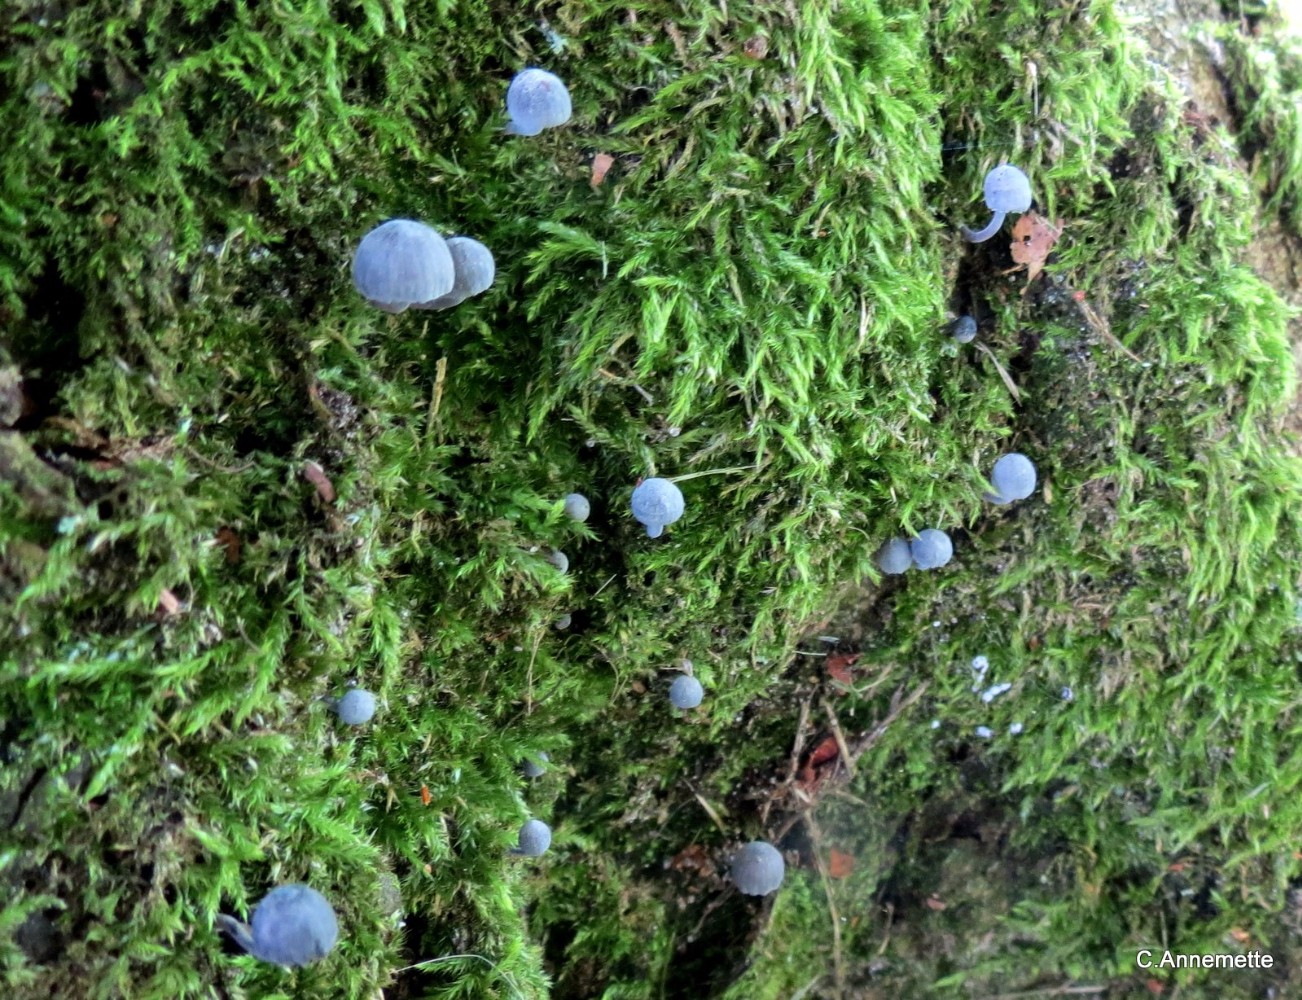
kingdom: Fungi
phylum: Basidiomycota
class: Agaricomycetes
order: Agaricales
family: Mycenaceae
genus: Mycena
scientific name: Mycena pseudocorticola
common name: gråblå bark-huesvamp
